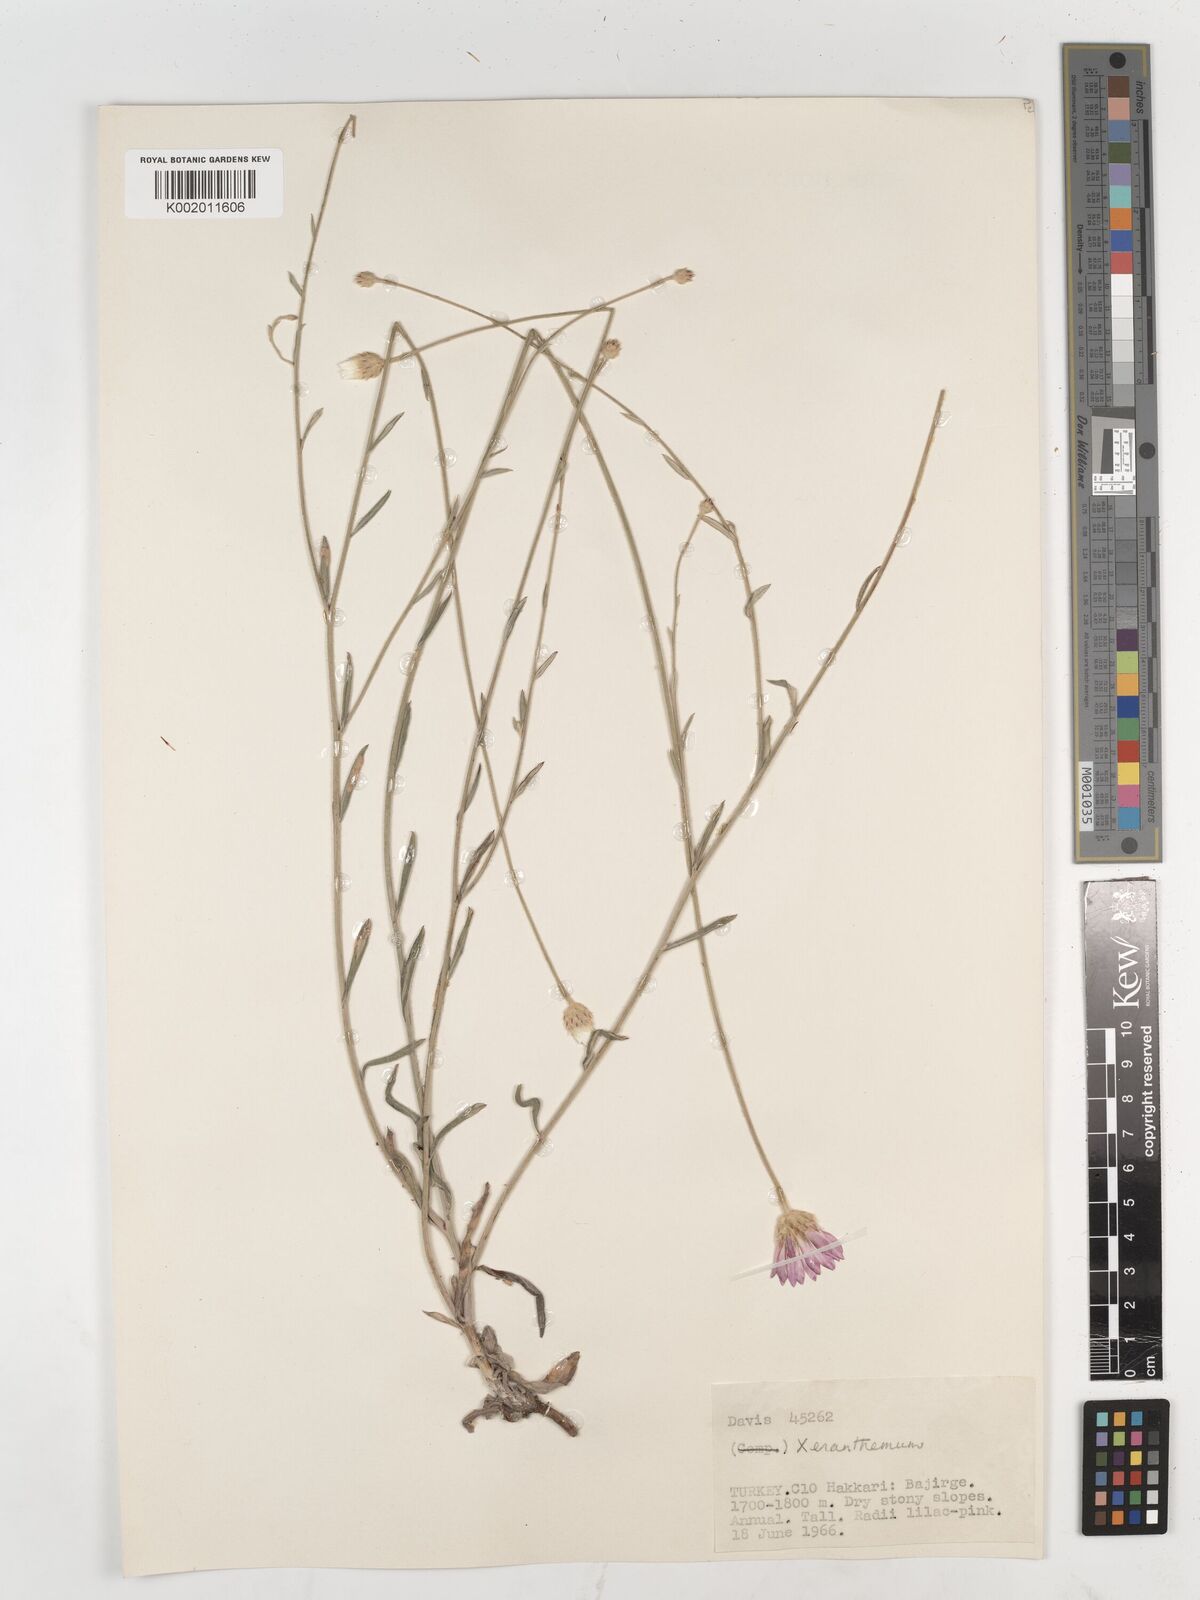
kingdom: Plantae
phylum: Tracheophyta
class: Magnoliopsida
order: Asterales
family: Asteraceae
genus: Xeranthemum
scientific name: Xeranthemum annuum
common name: Immortelle
